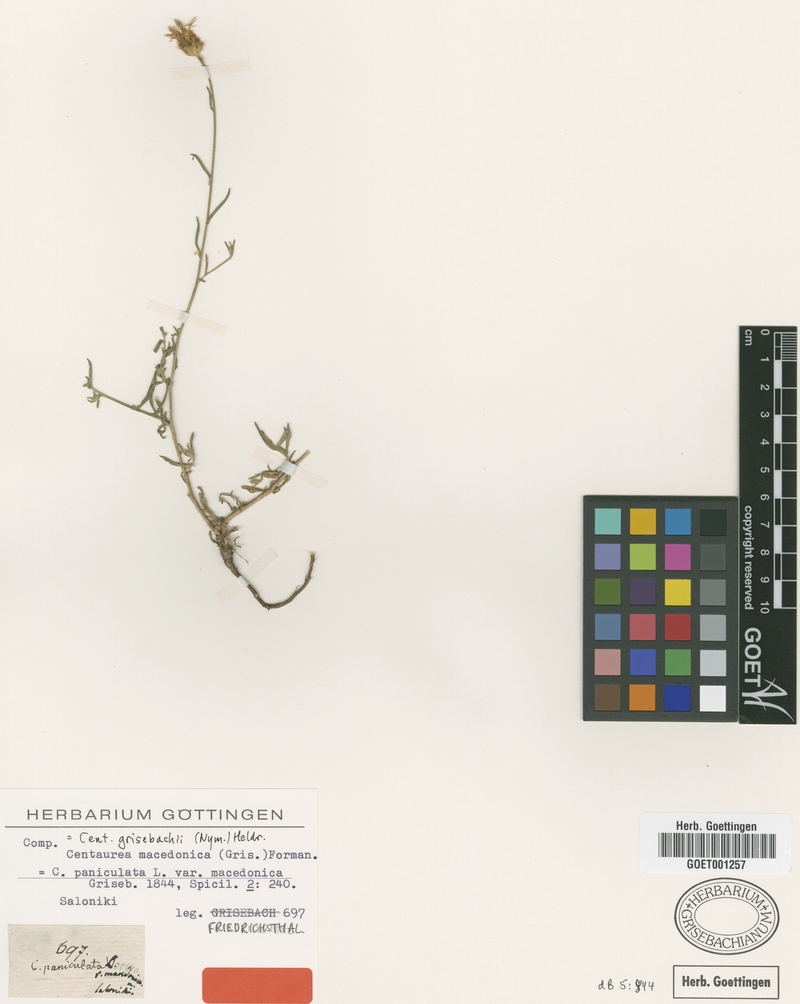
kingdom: Plantae
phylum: Tracheophyta
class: Magnoliopsida
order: Asterales
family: Asteraceae
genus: Centaurea
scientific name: Centaurea grisebachii
